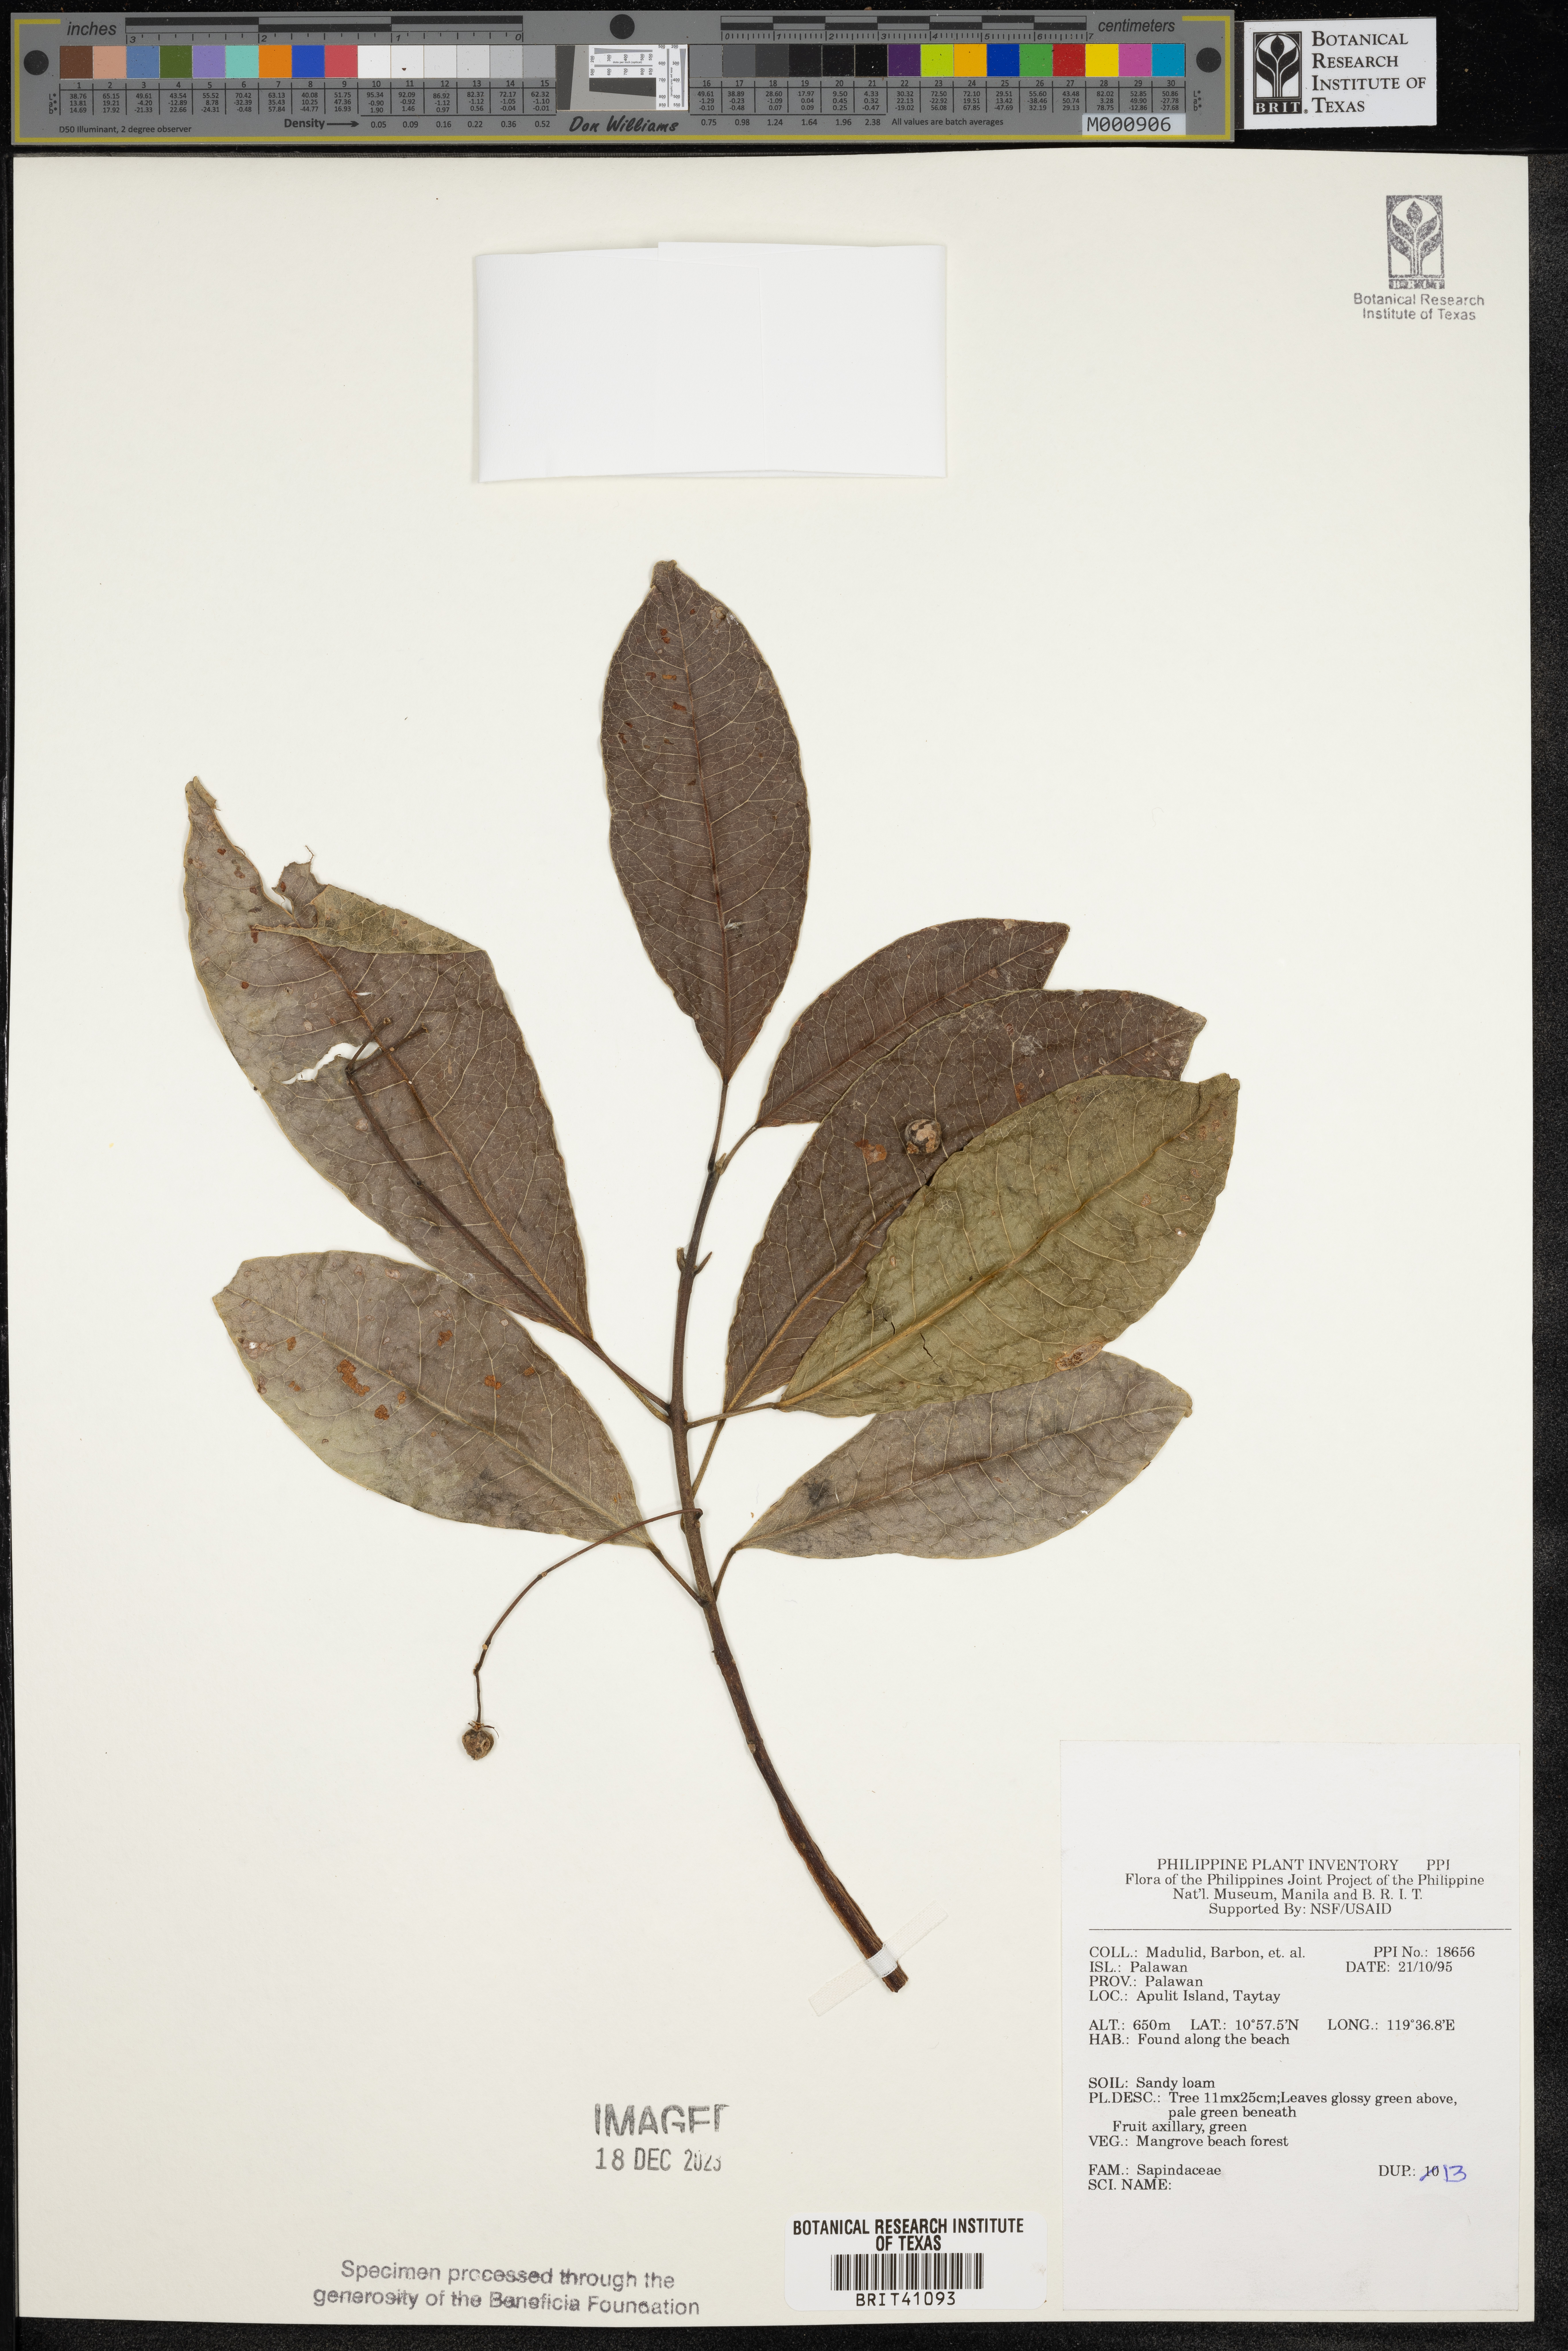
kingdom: Plantae
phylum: Tracheophyta
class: Magnoliopsida
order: Sapindales
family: Sapindaceae
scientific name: Sapindaceae
